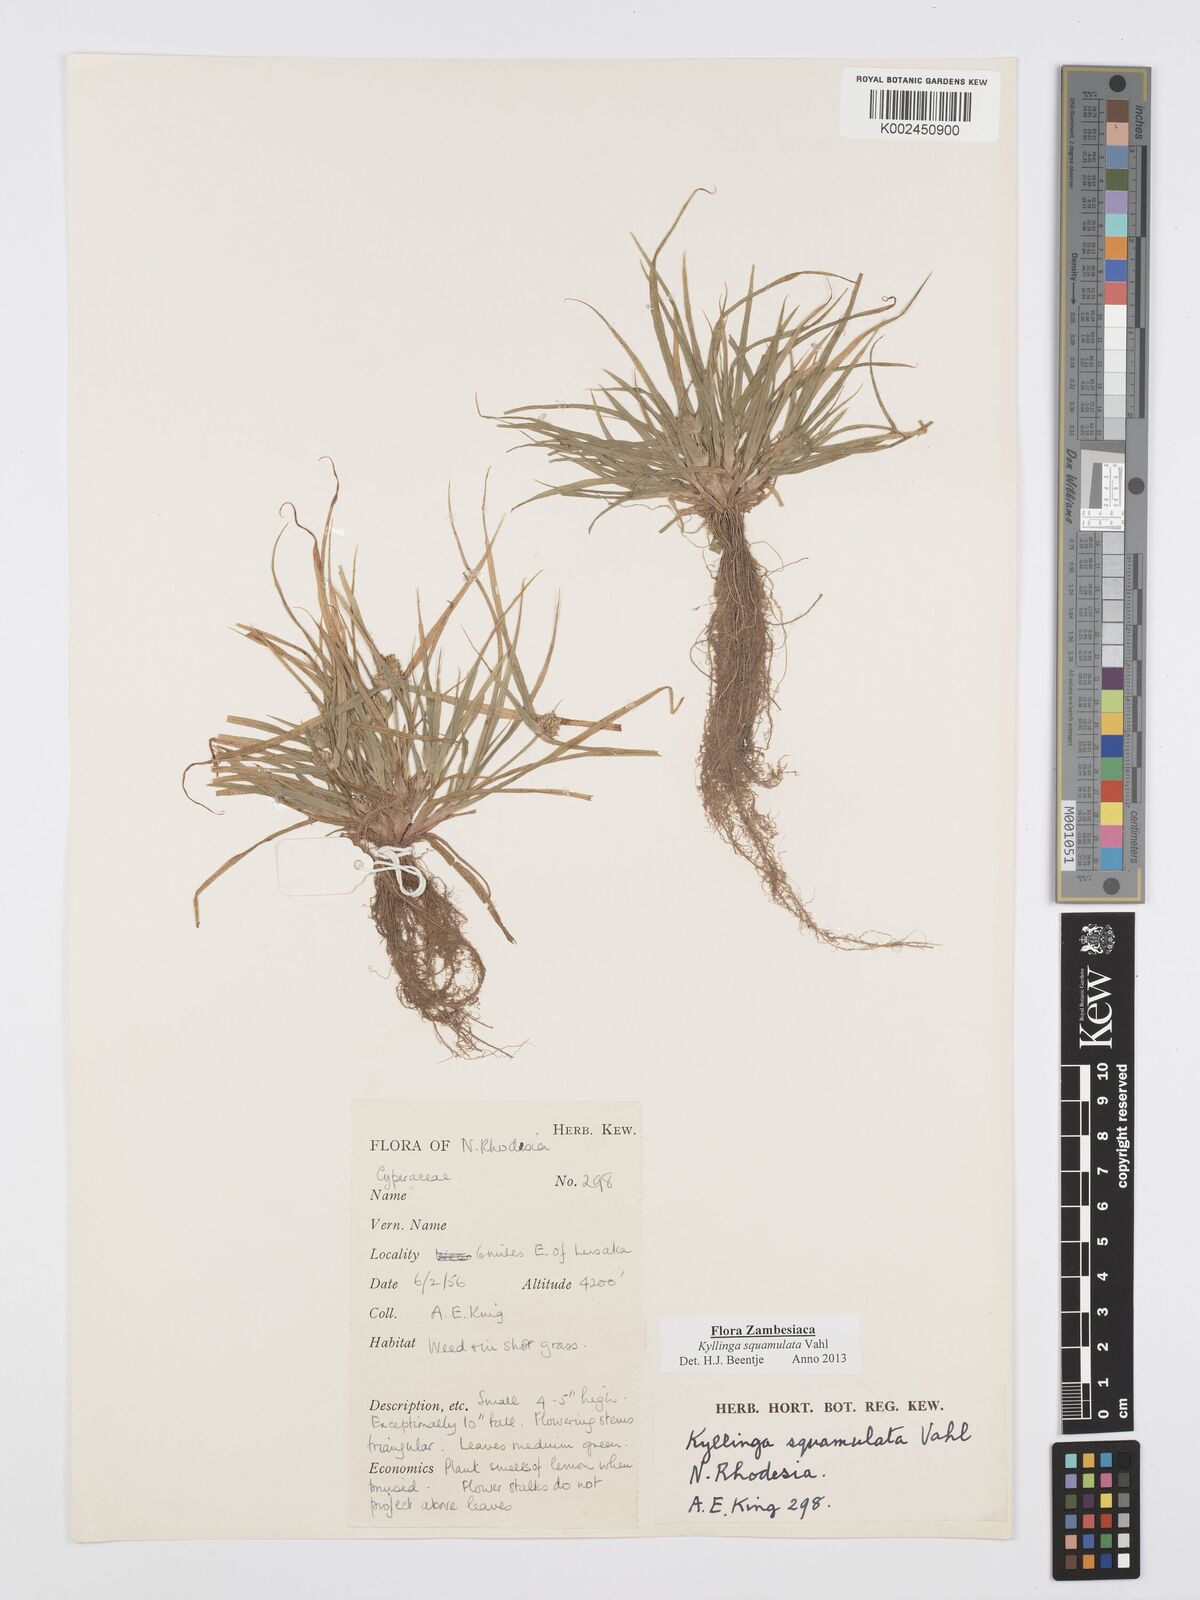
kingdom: Plantae
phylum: Tracheophyta
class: Liliopsida
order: Poales
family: Cyperaceae
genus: Cyperus
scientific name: Cyperus distans
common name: Slender cyperus
